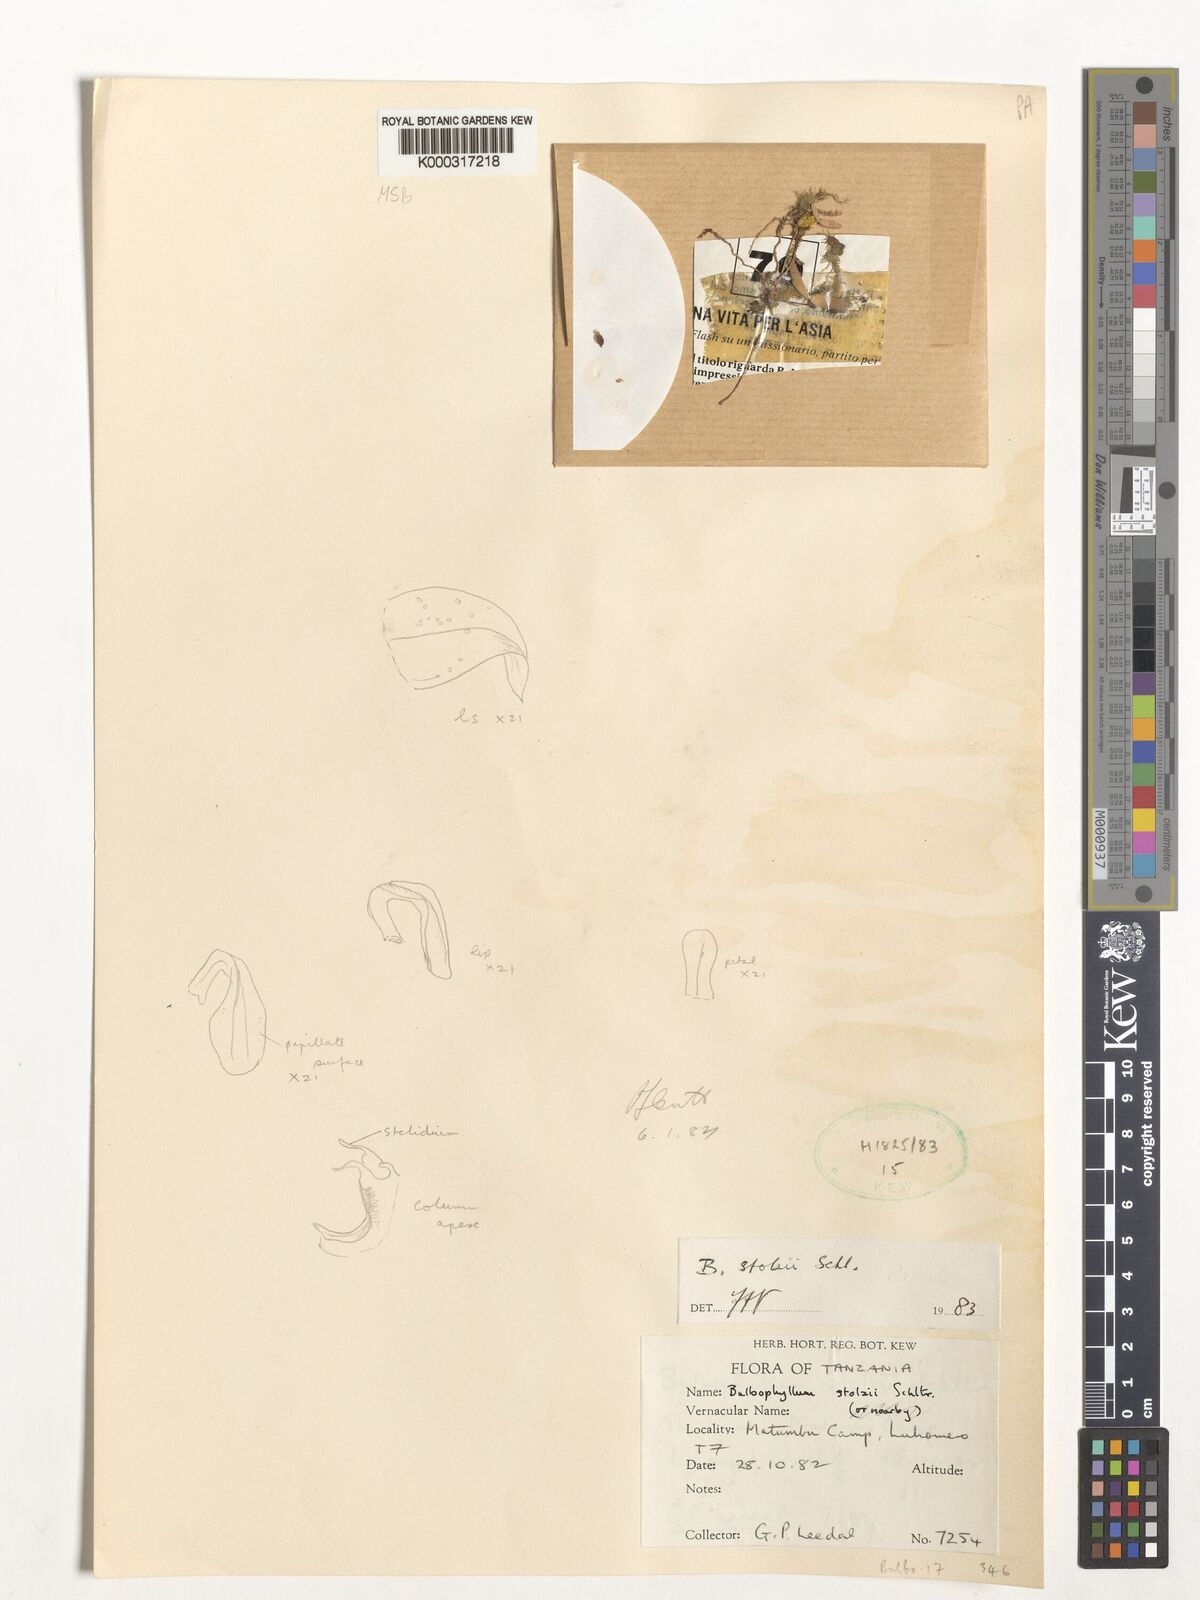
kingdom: Plantae
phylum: Tracheophyta
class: Liliopsida
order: Asparagales
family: Orchidaceae
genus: Bulbophyllum
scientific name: Bulbophyllum stolzii
